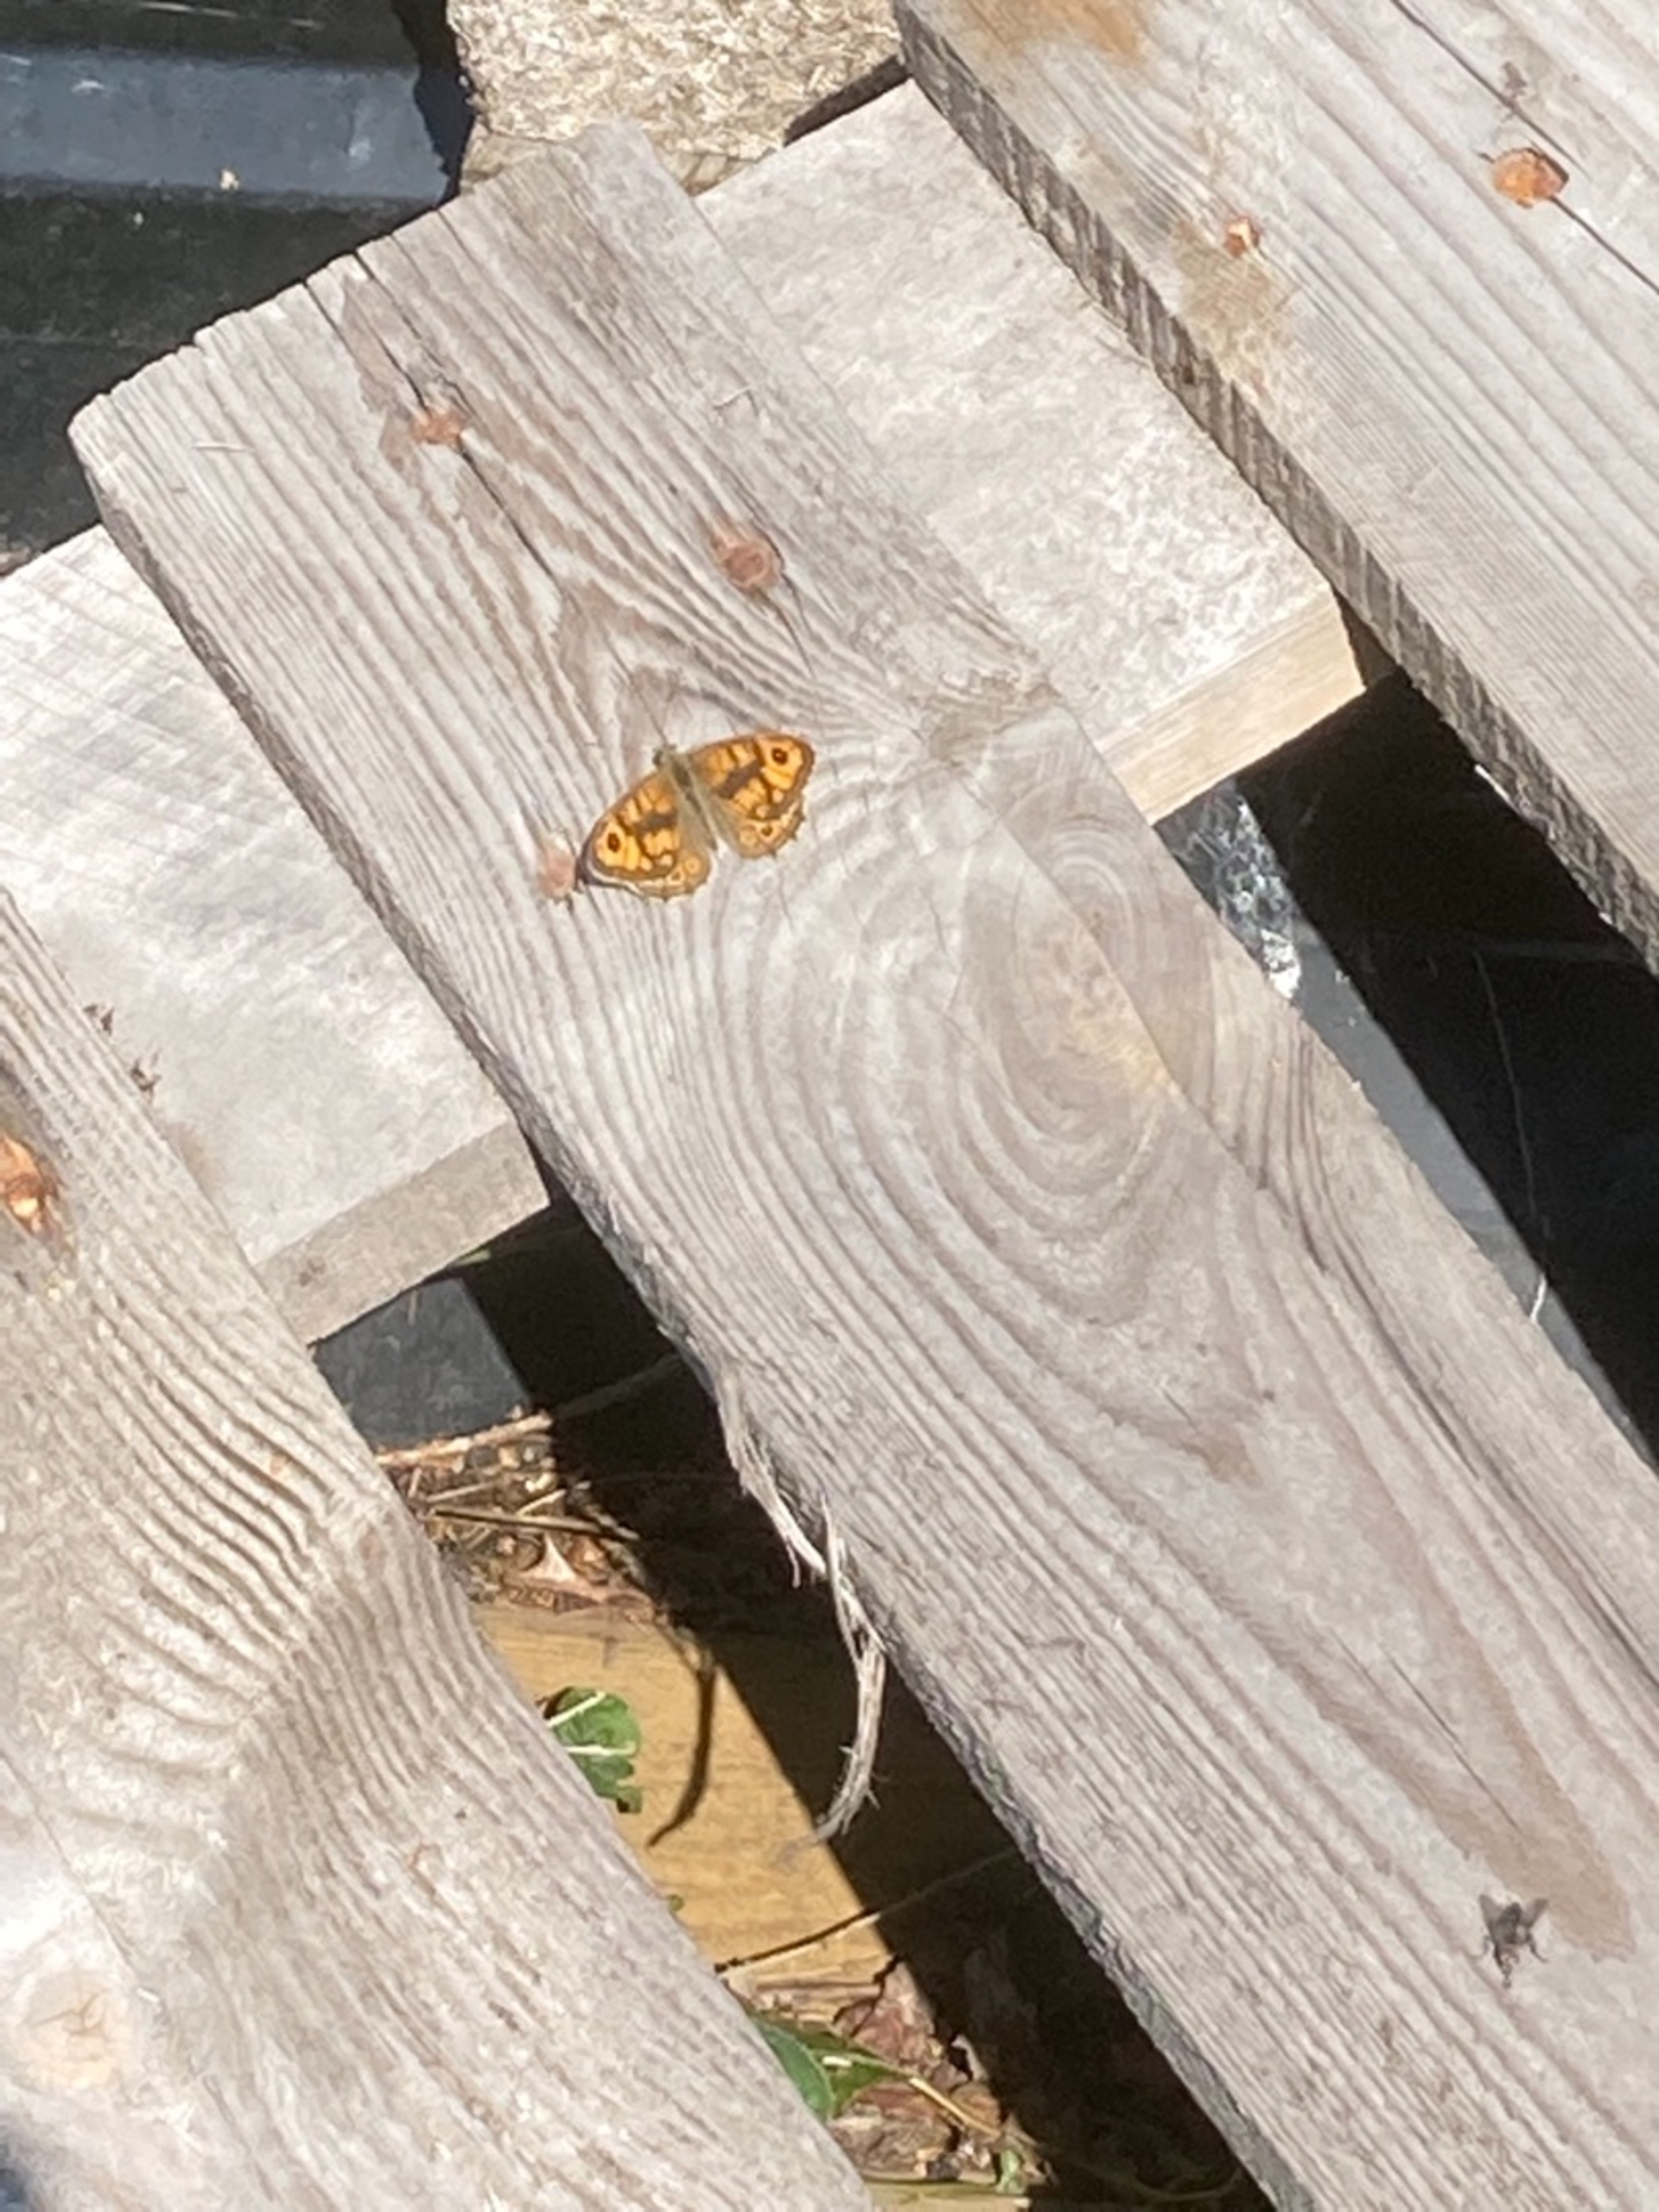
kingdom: Animalia
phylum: Arthropoda
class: Insecta
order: Lepidoptera
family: Nymphalidae
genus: Pararge
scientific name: Pararge Lasiommata megera
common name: Vejrandøje
